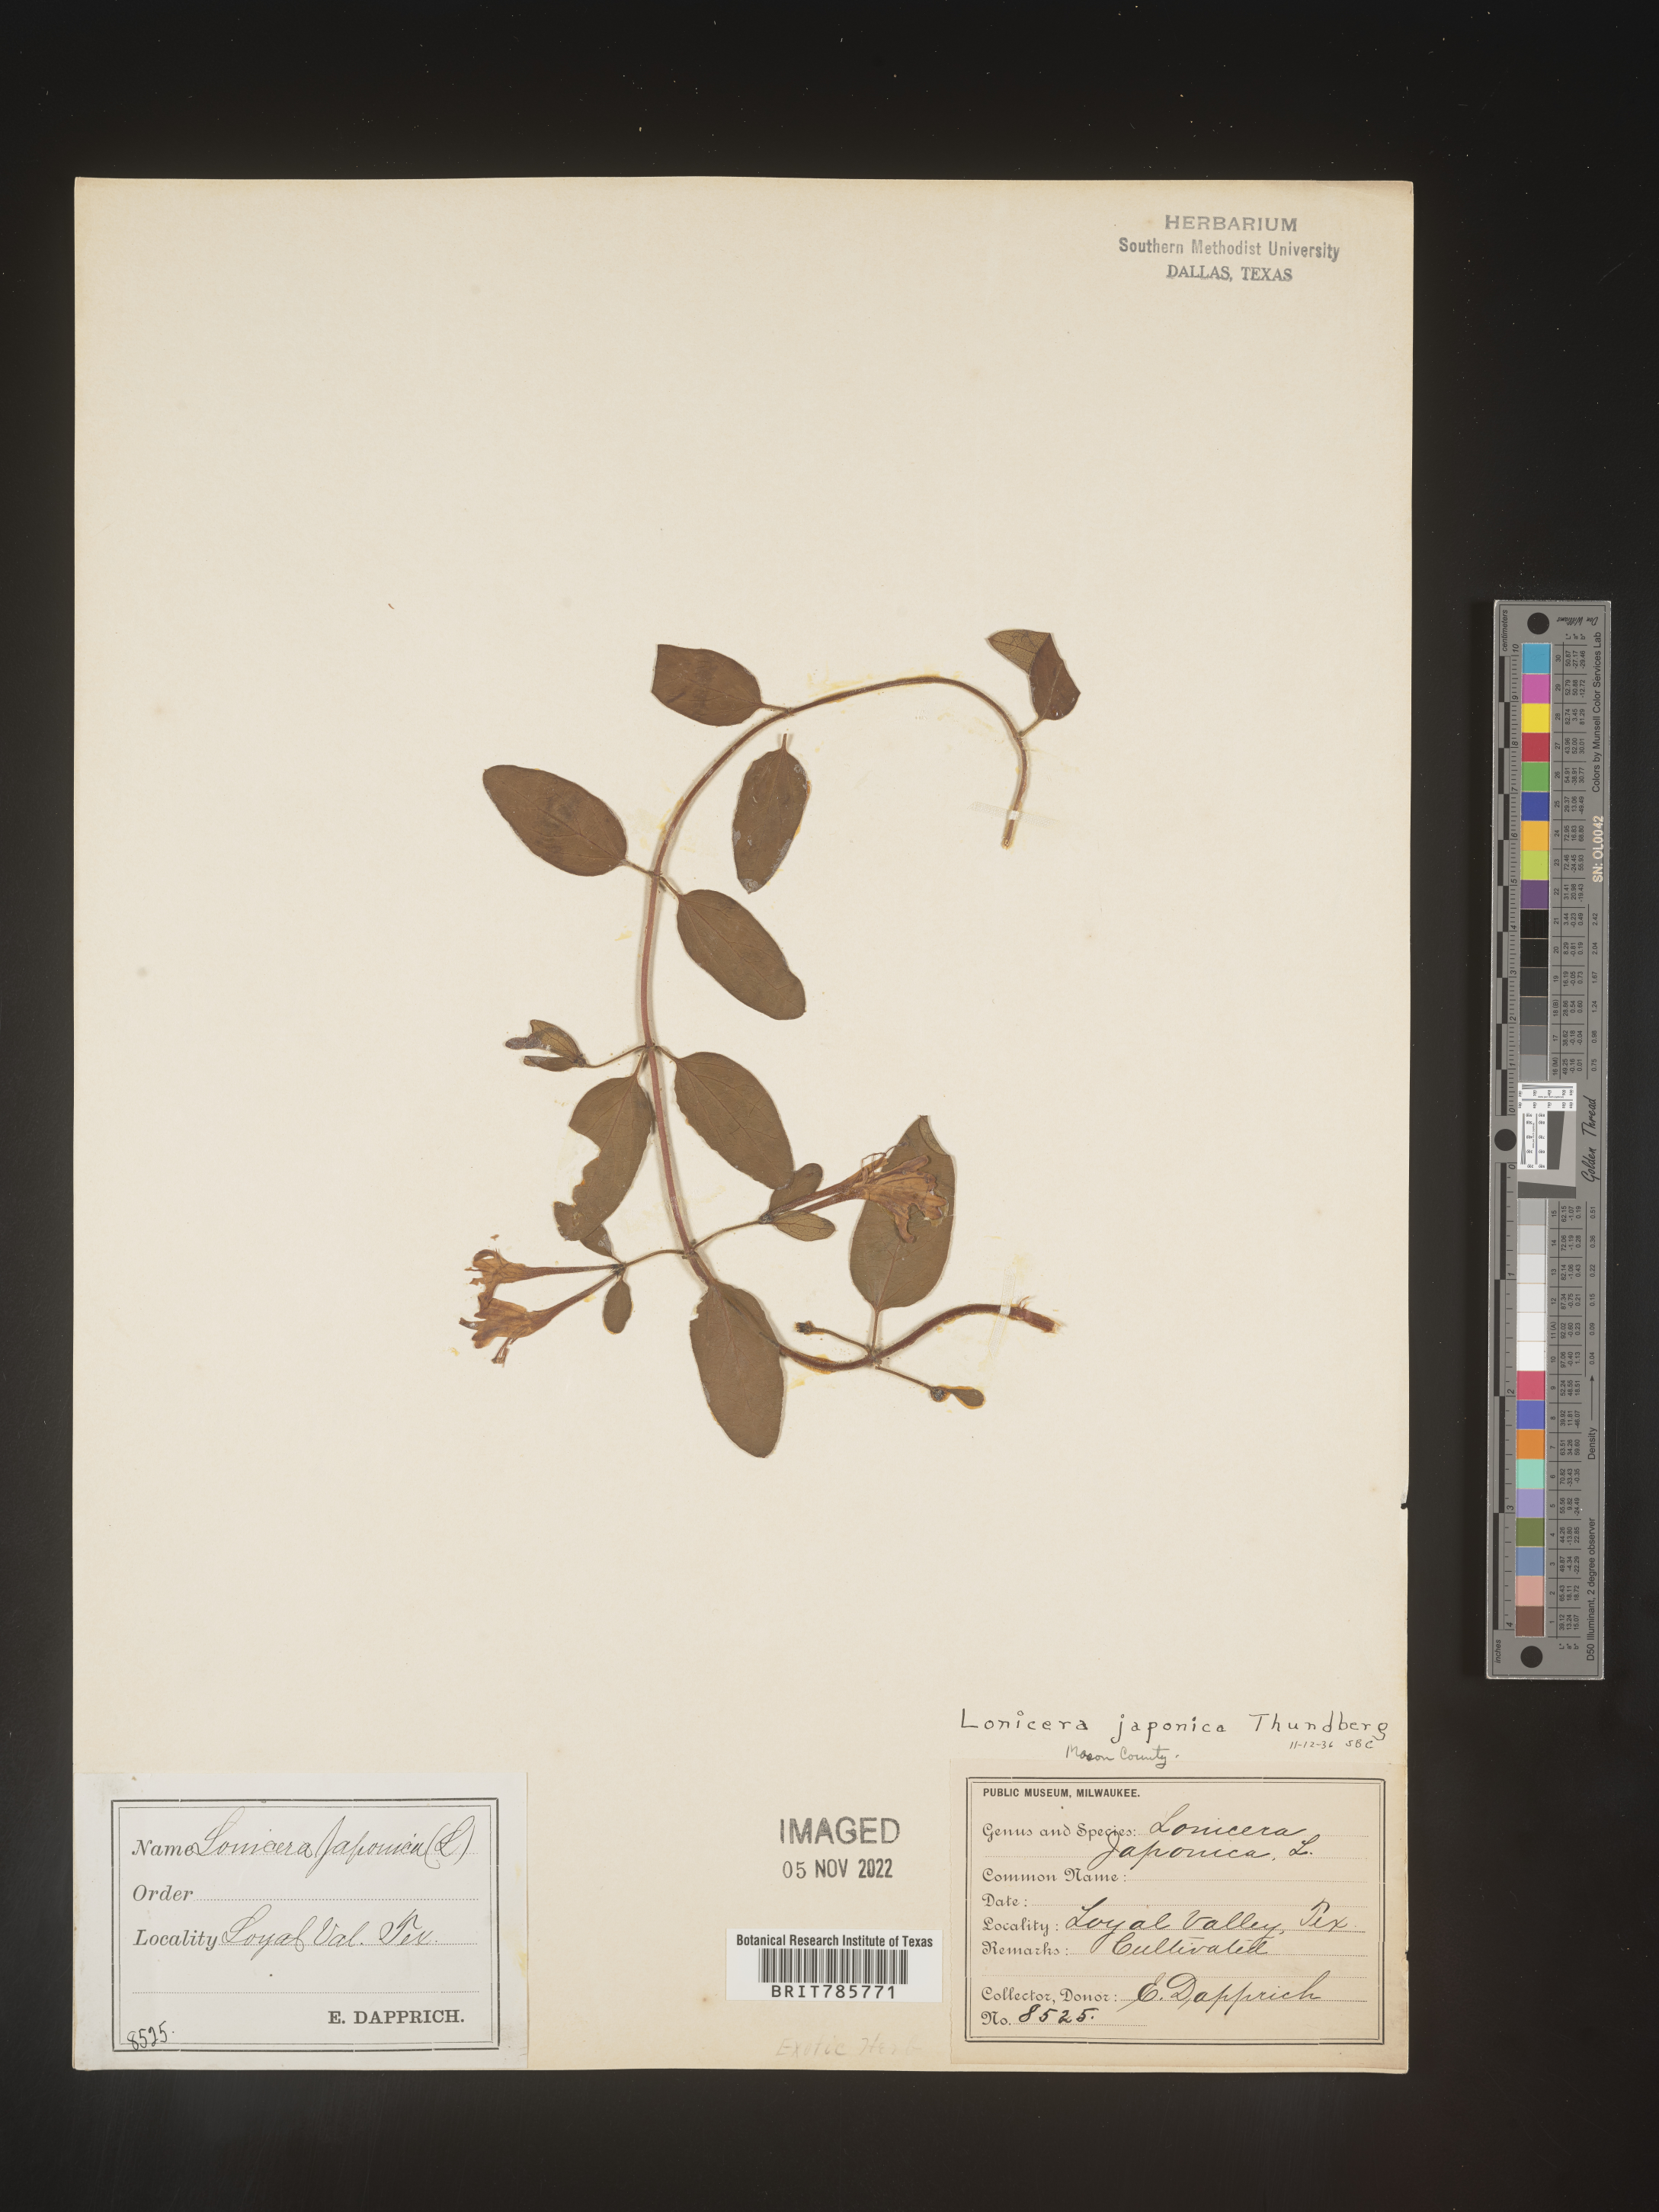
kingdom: Plantae
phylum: Tracheophyta
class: Magnoliopsida
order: Dipsacales
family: Caprifoliaceae
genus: Lonicera
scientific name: Lonicera
